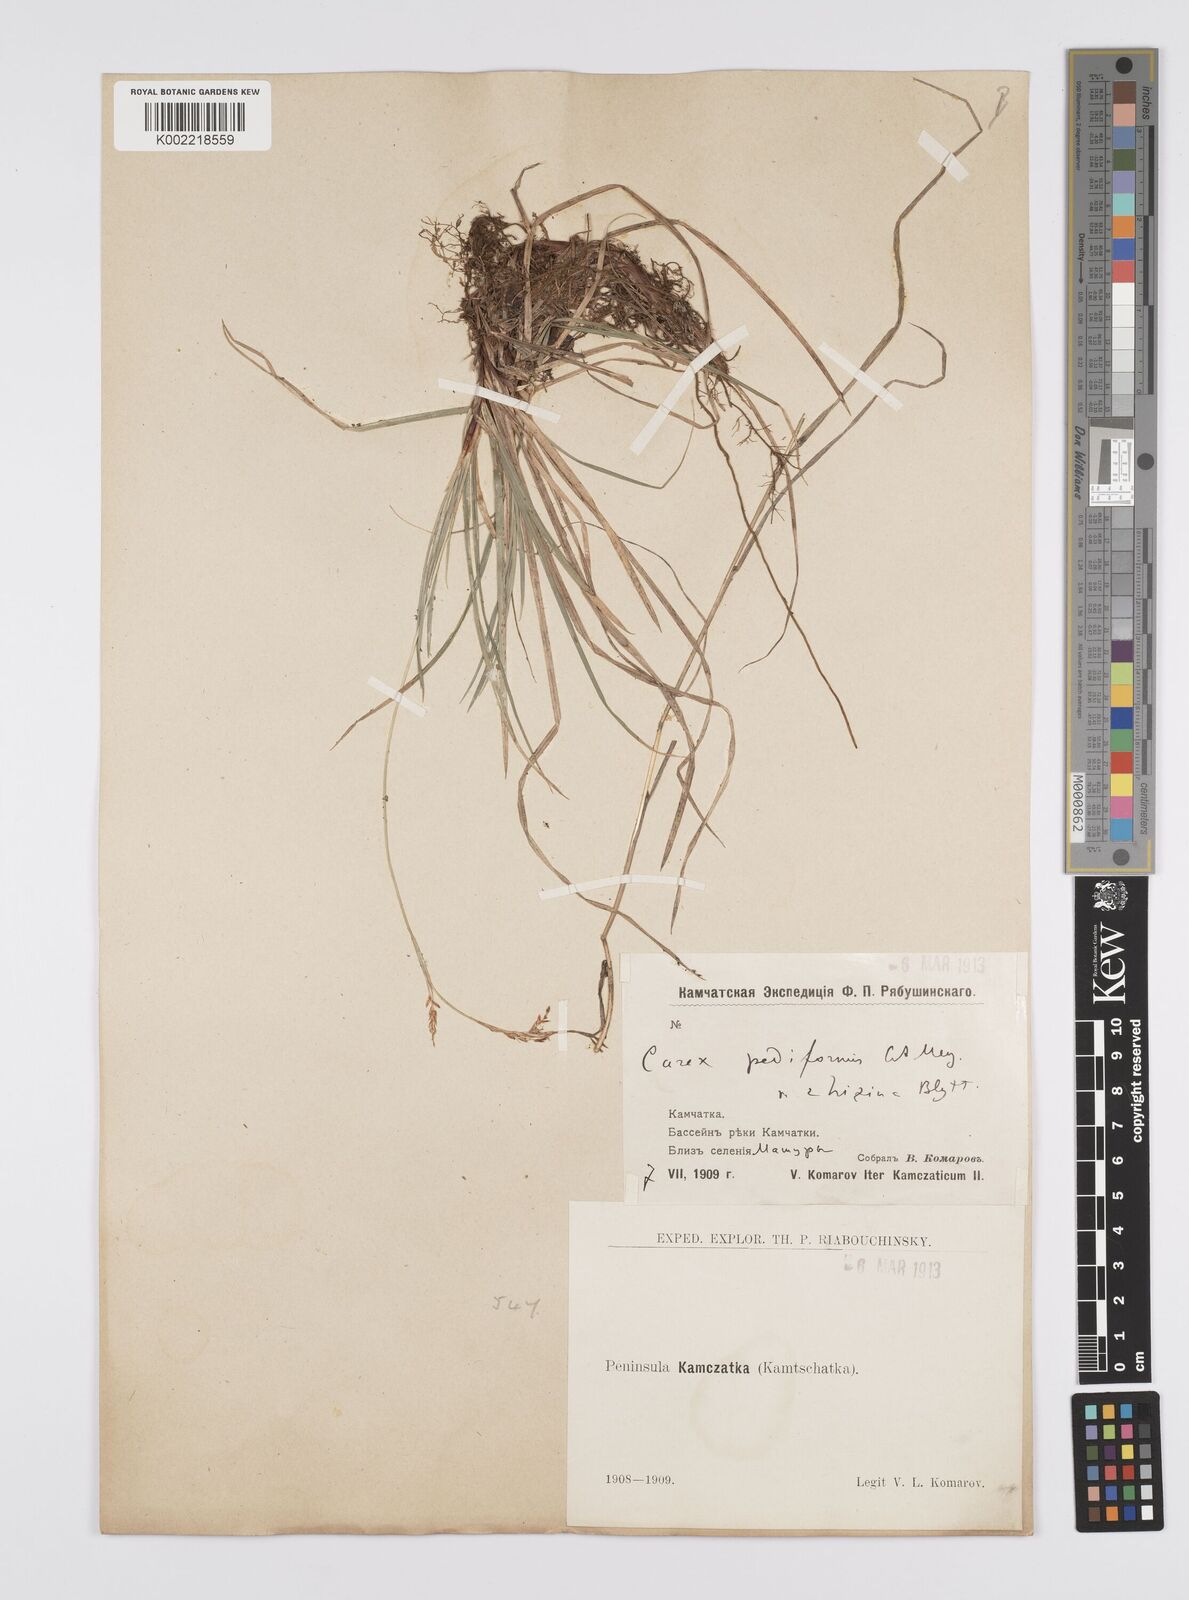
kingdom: Plantae
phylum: Tracheophyta
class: Liliopsida
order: Poales
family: Cyperaceae
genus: Carex
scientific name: Carex pediformis
